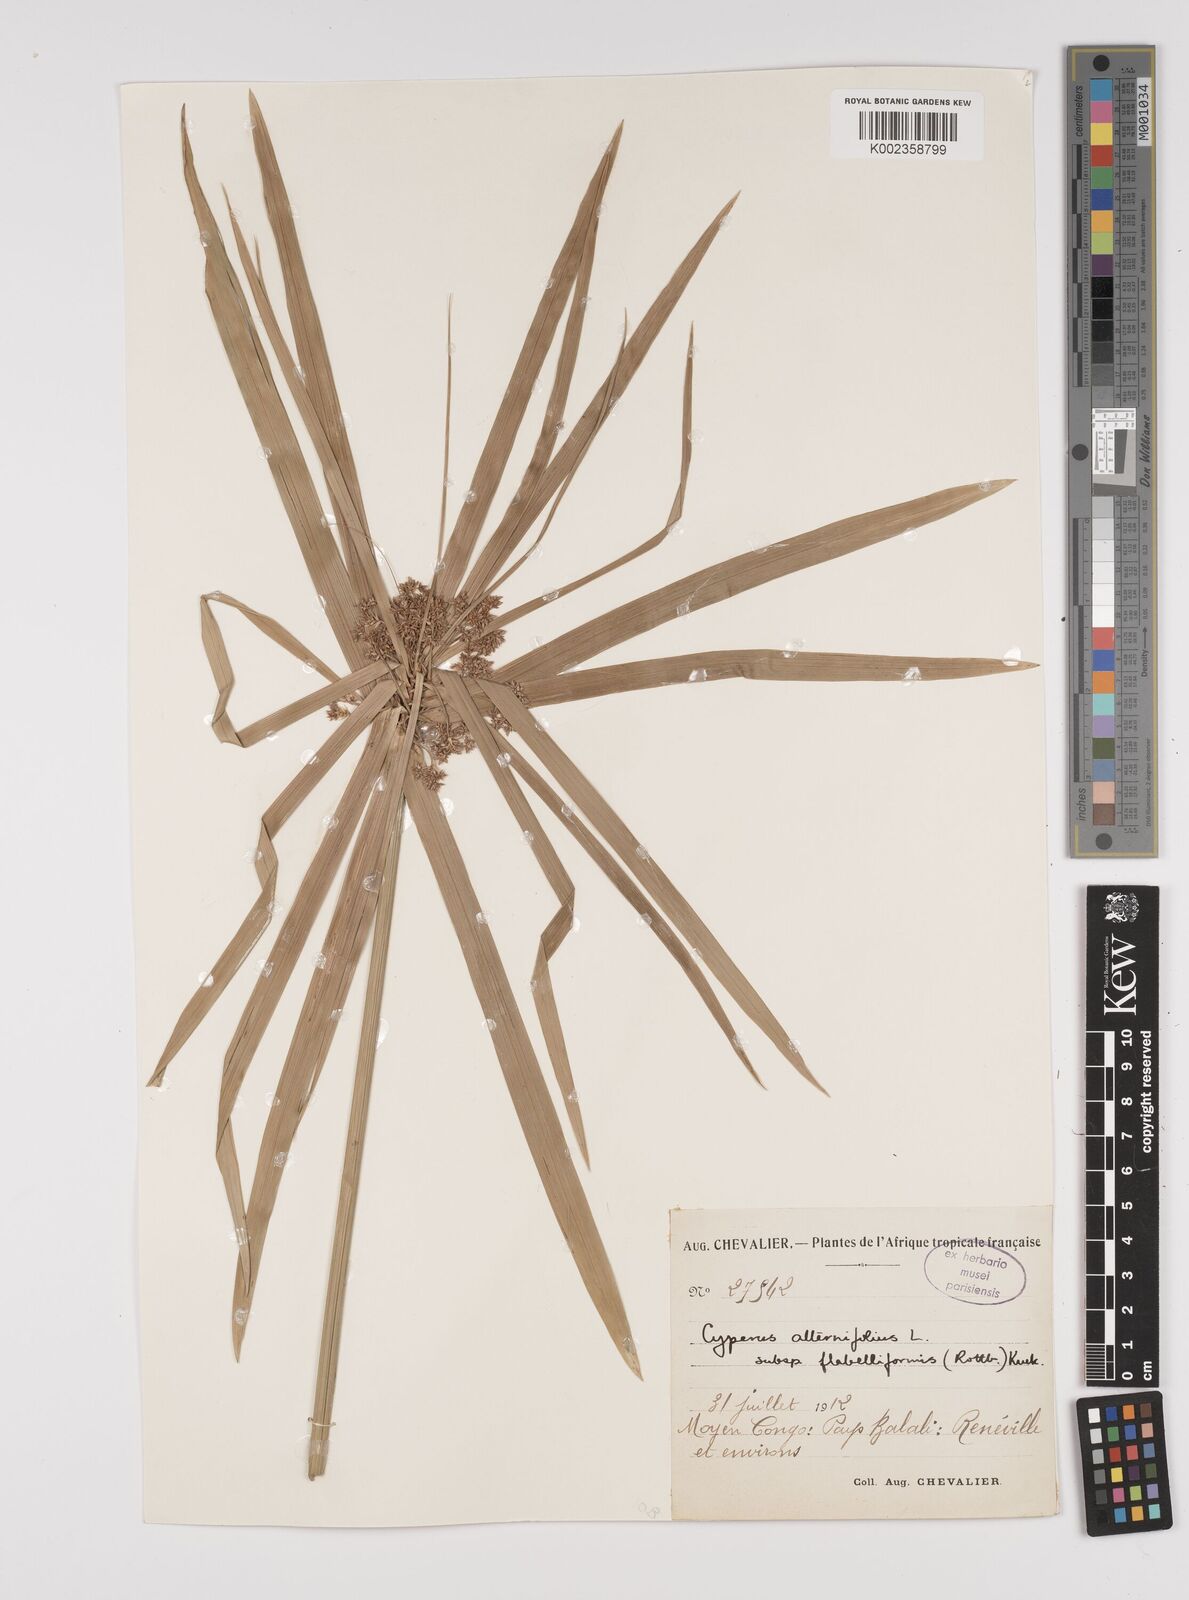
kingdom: Plantae
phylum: Tracheophyta
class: Liliopsida
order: Poales
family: Cyperaceae
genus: Cyperus
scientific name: Cyperus alternifolius
